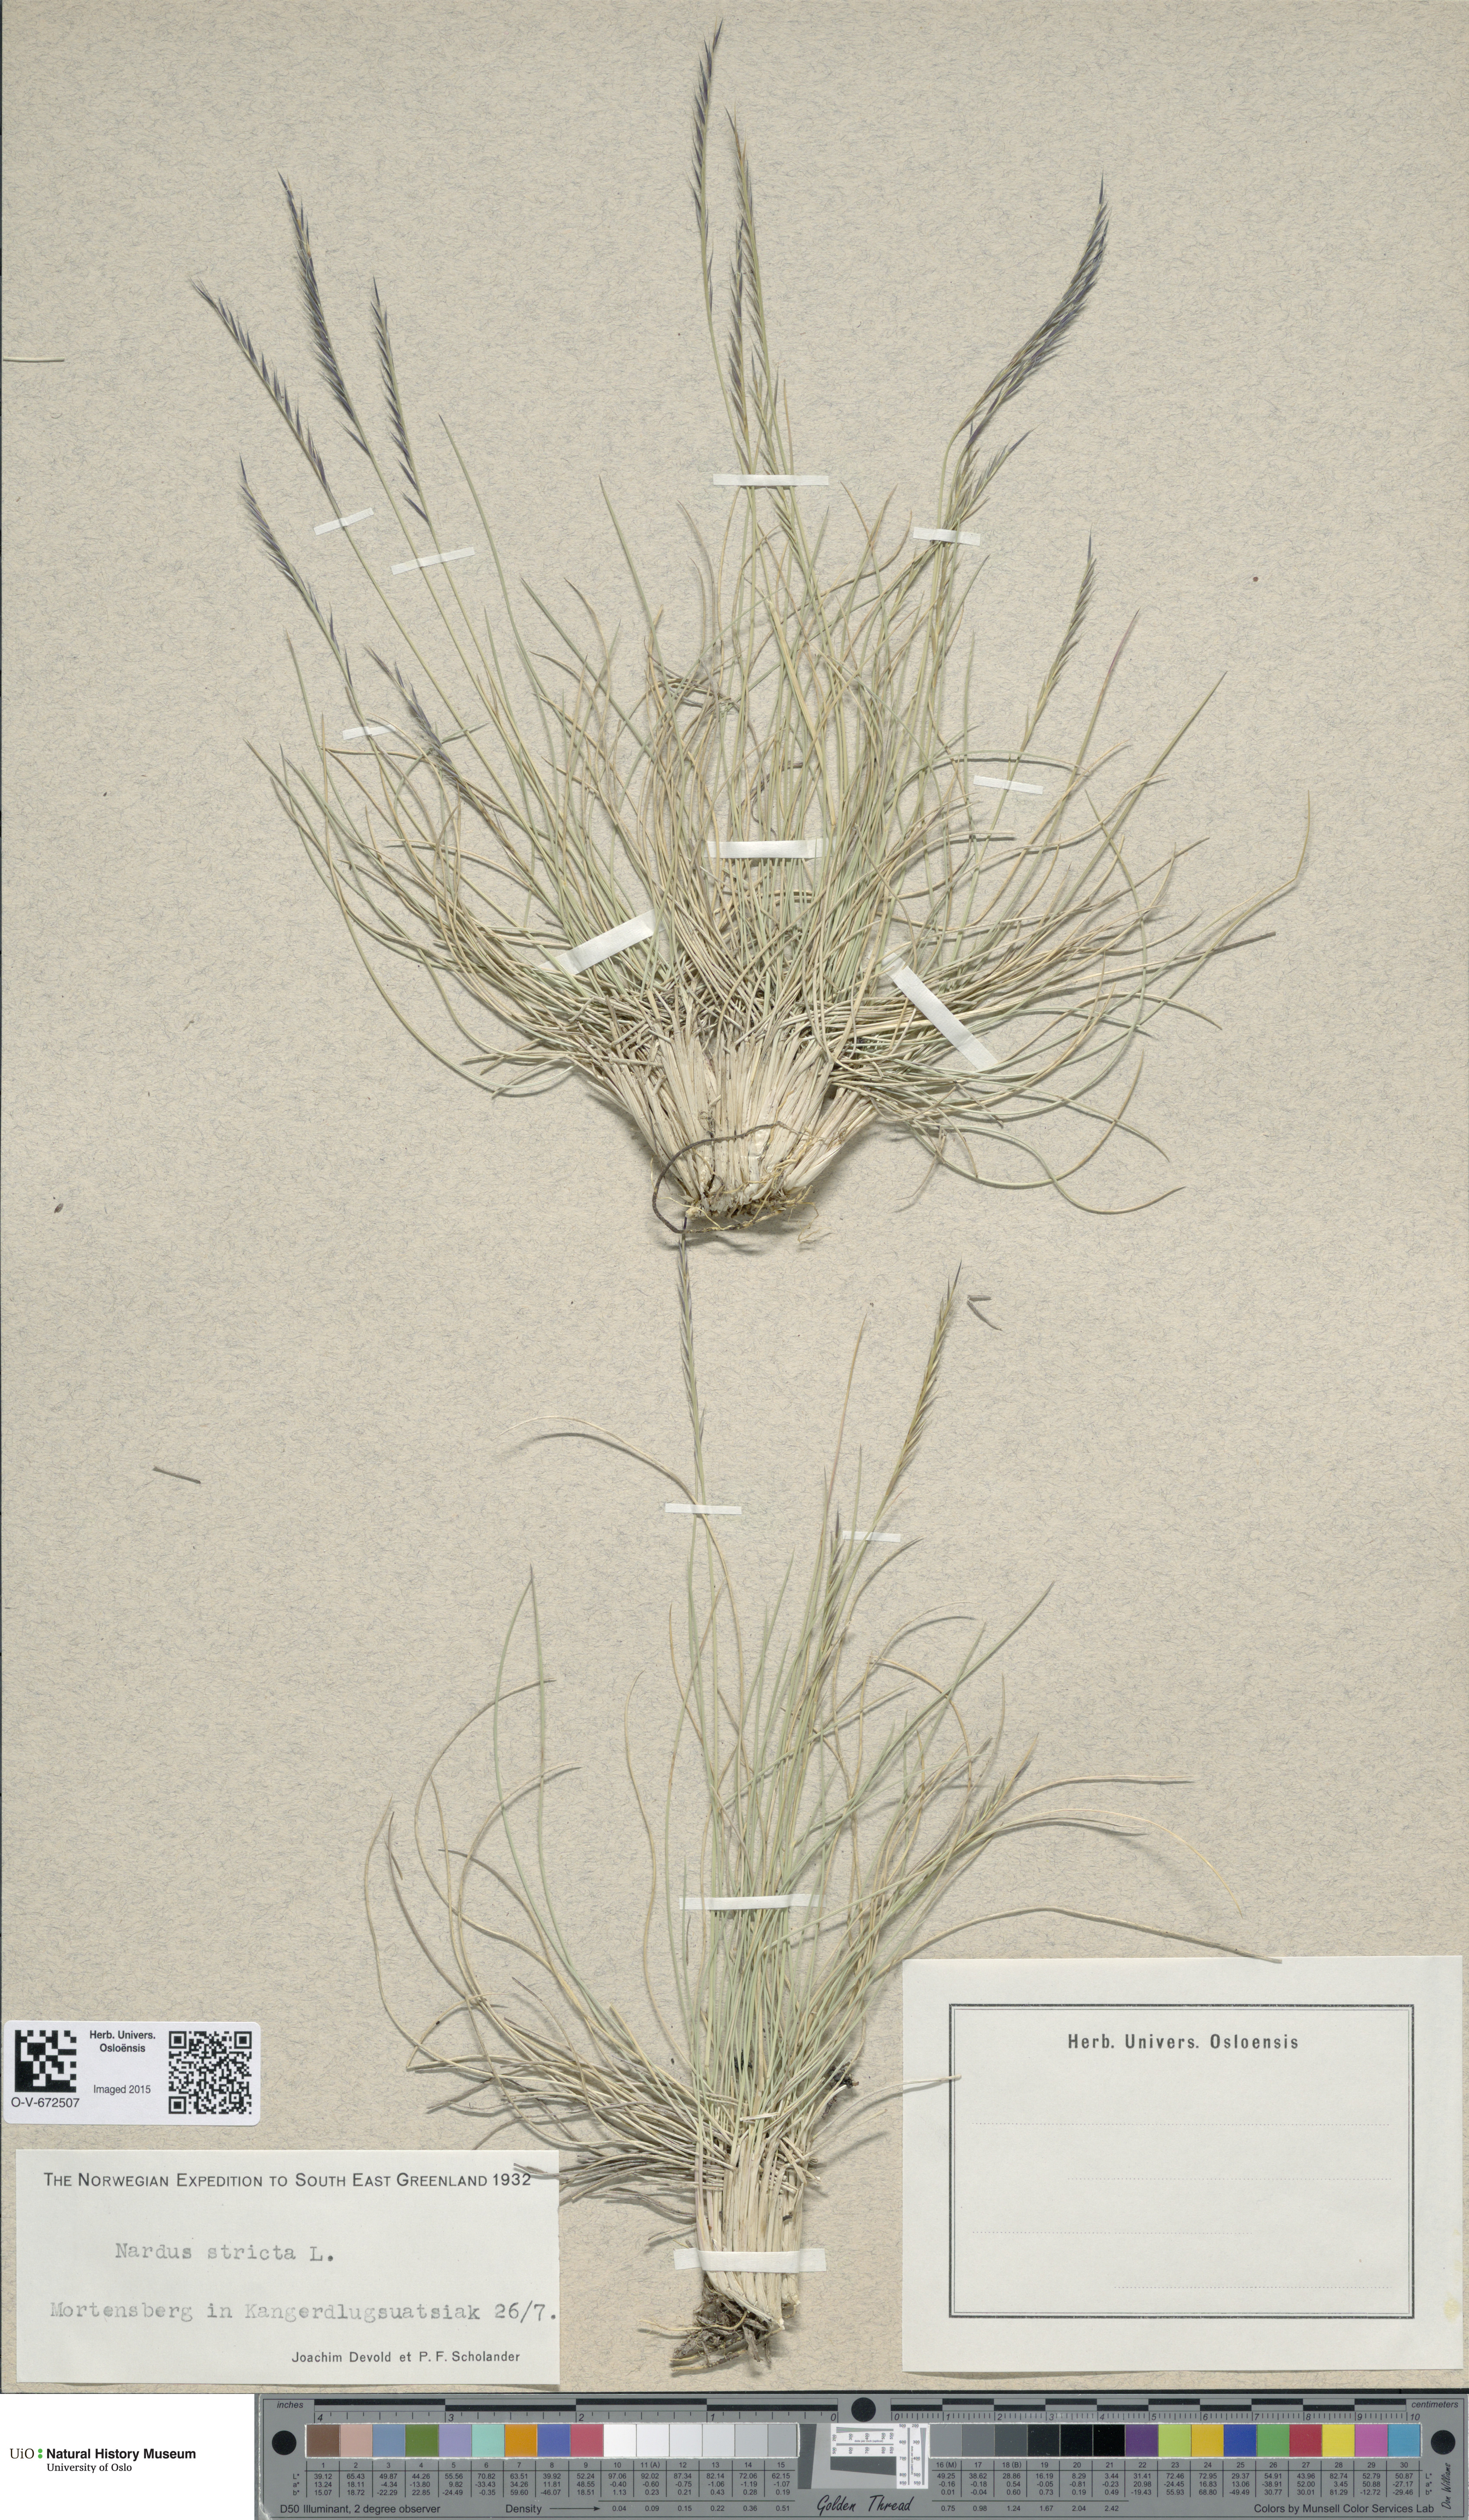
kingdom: Plantae
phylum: Tracheophyta
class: Liliopsida
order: Poales
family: Poaceae
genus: Nardus
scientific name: Nardus stricta
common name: Mat-grass
